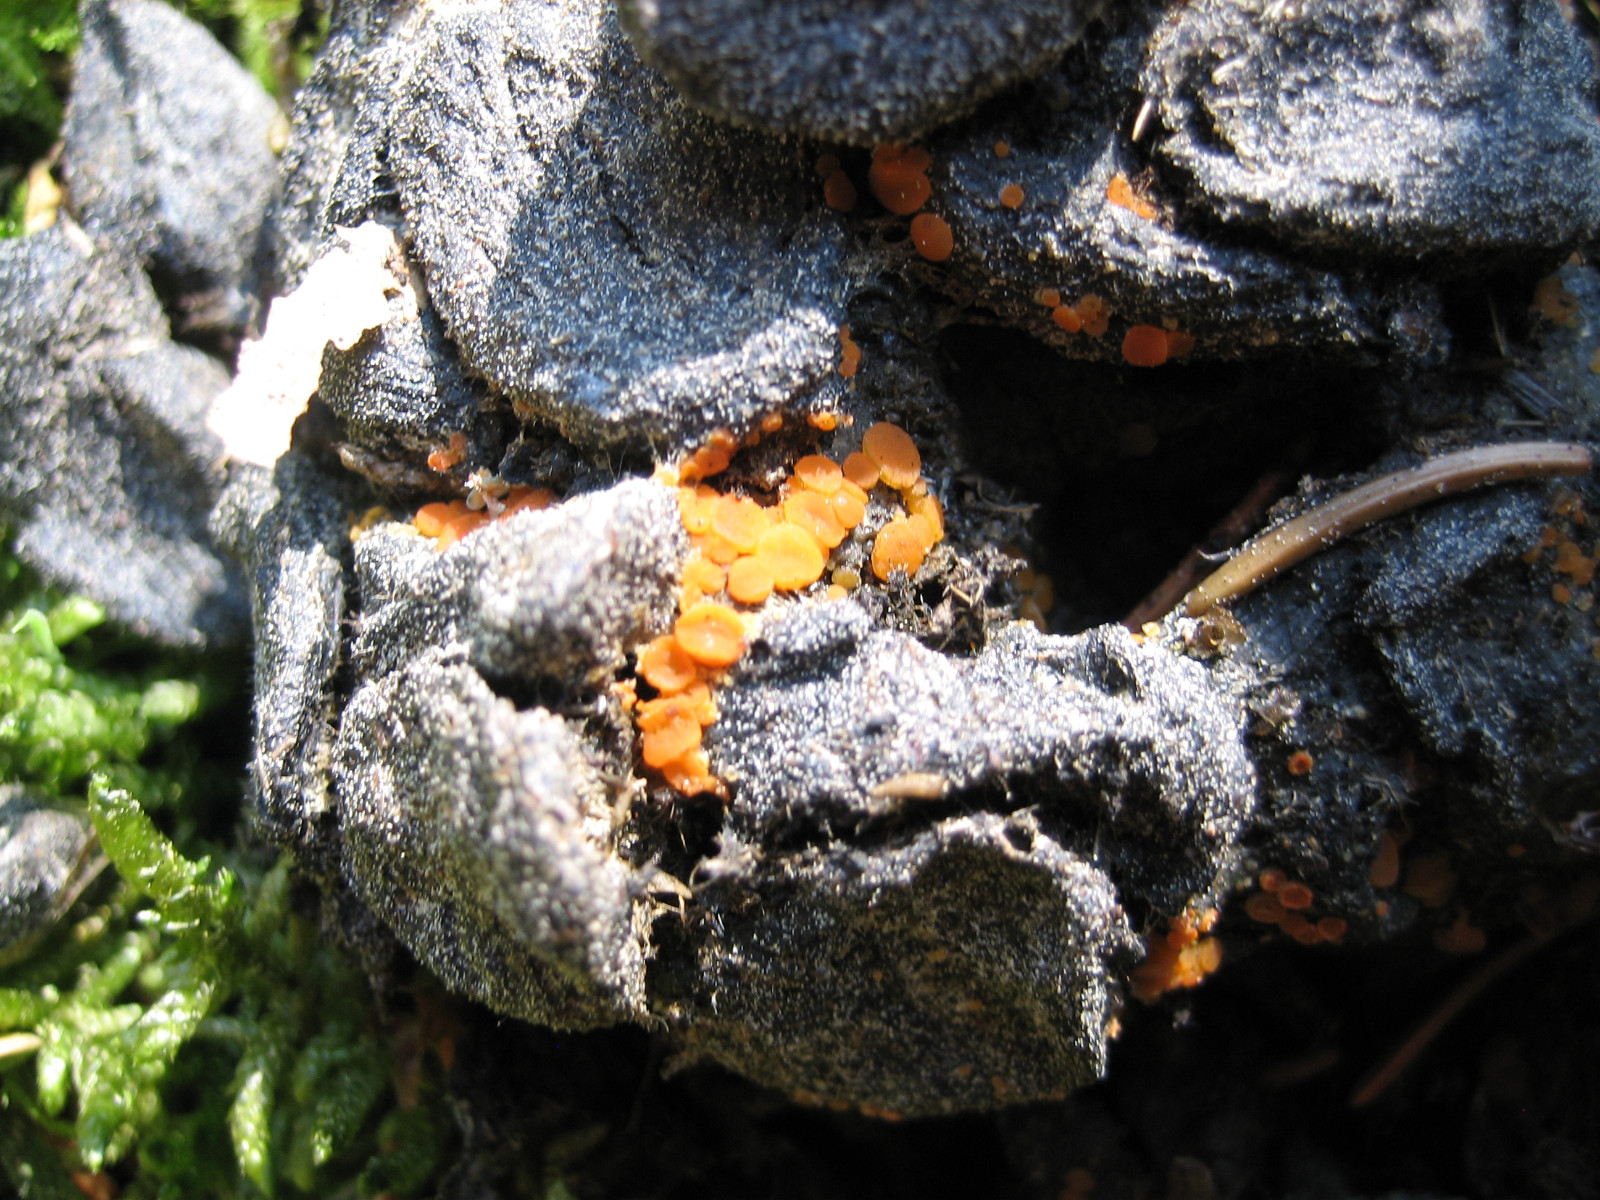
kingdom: Fungi
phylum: Ascomycota
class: Pezizomycetes
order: Pezizales
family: Pyronemataceae
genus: Cheilymenia
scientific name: Cheilymenia granulata
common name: møgbæger
